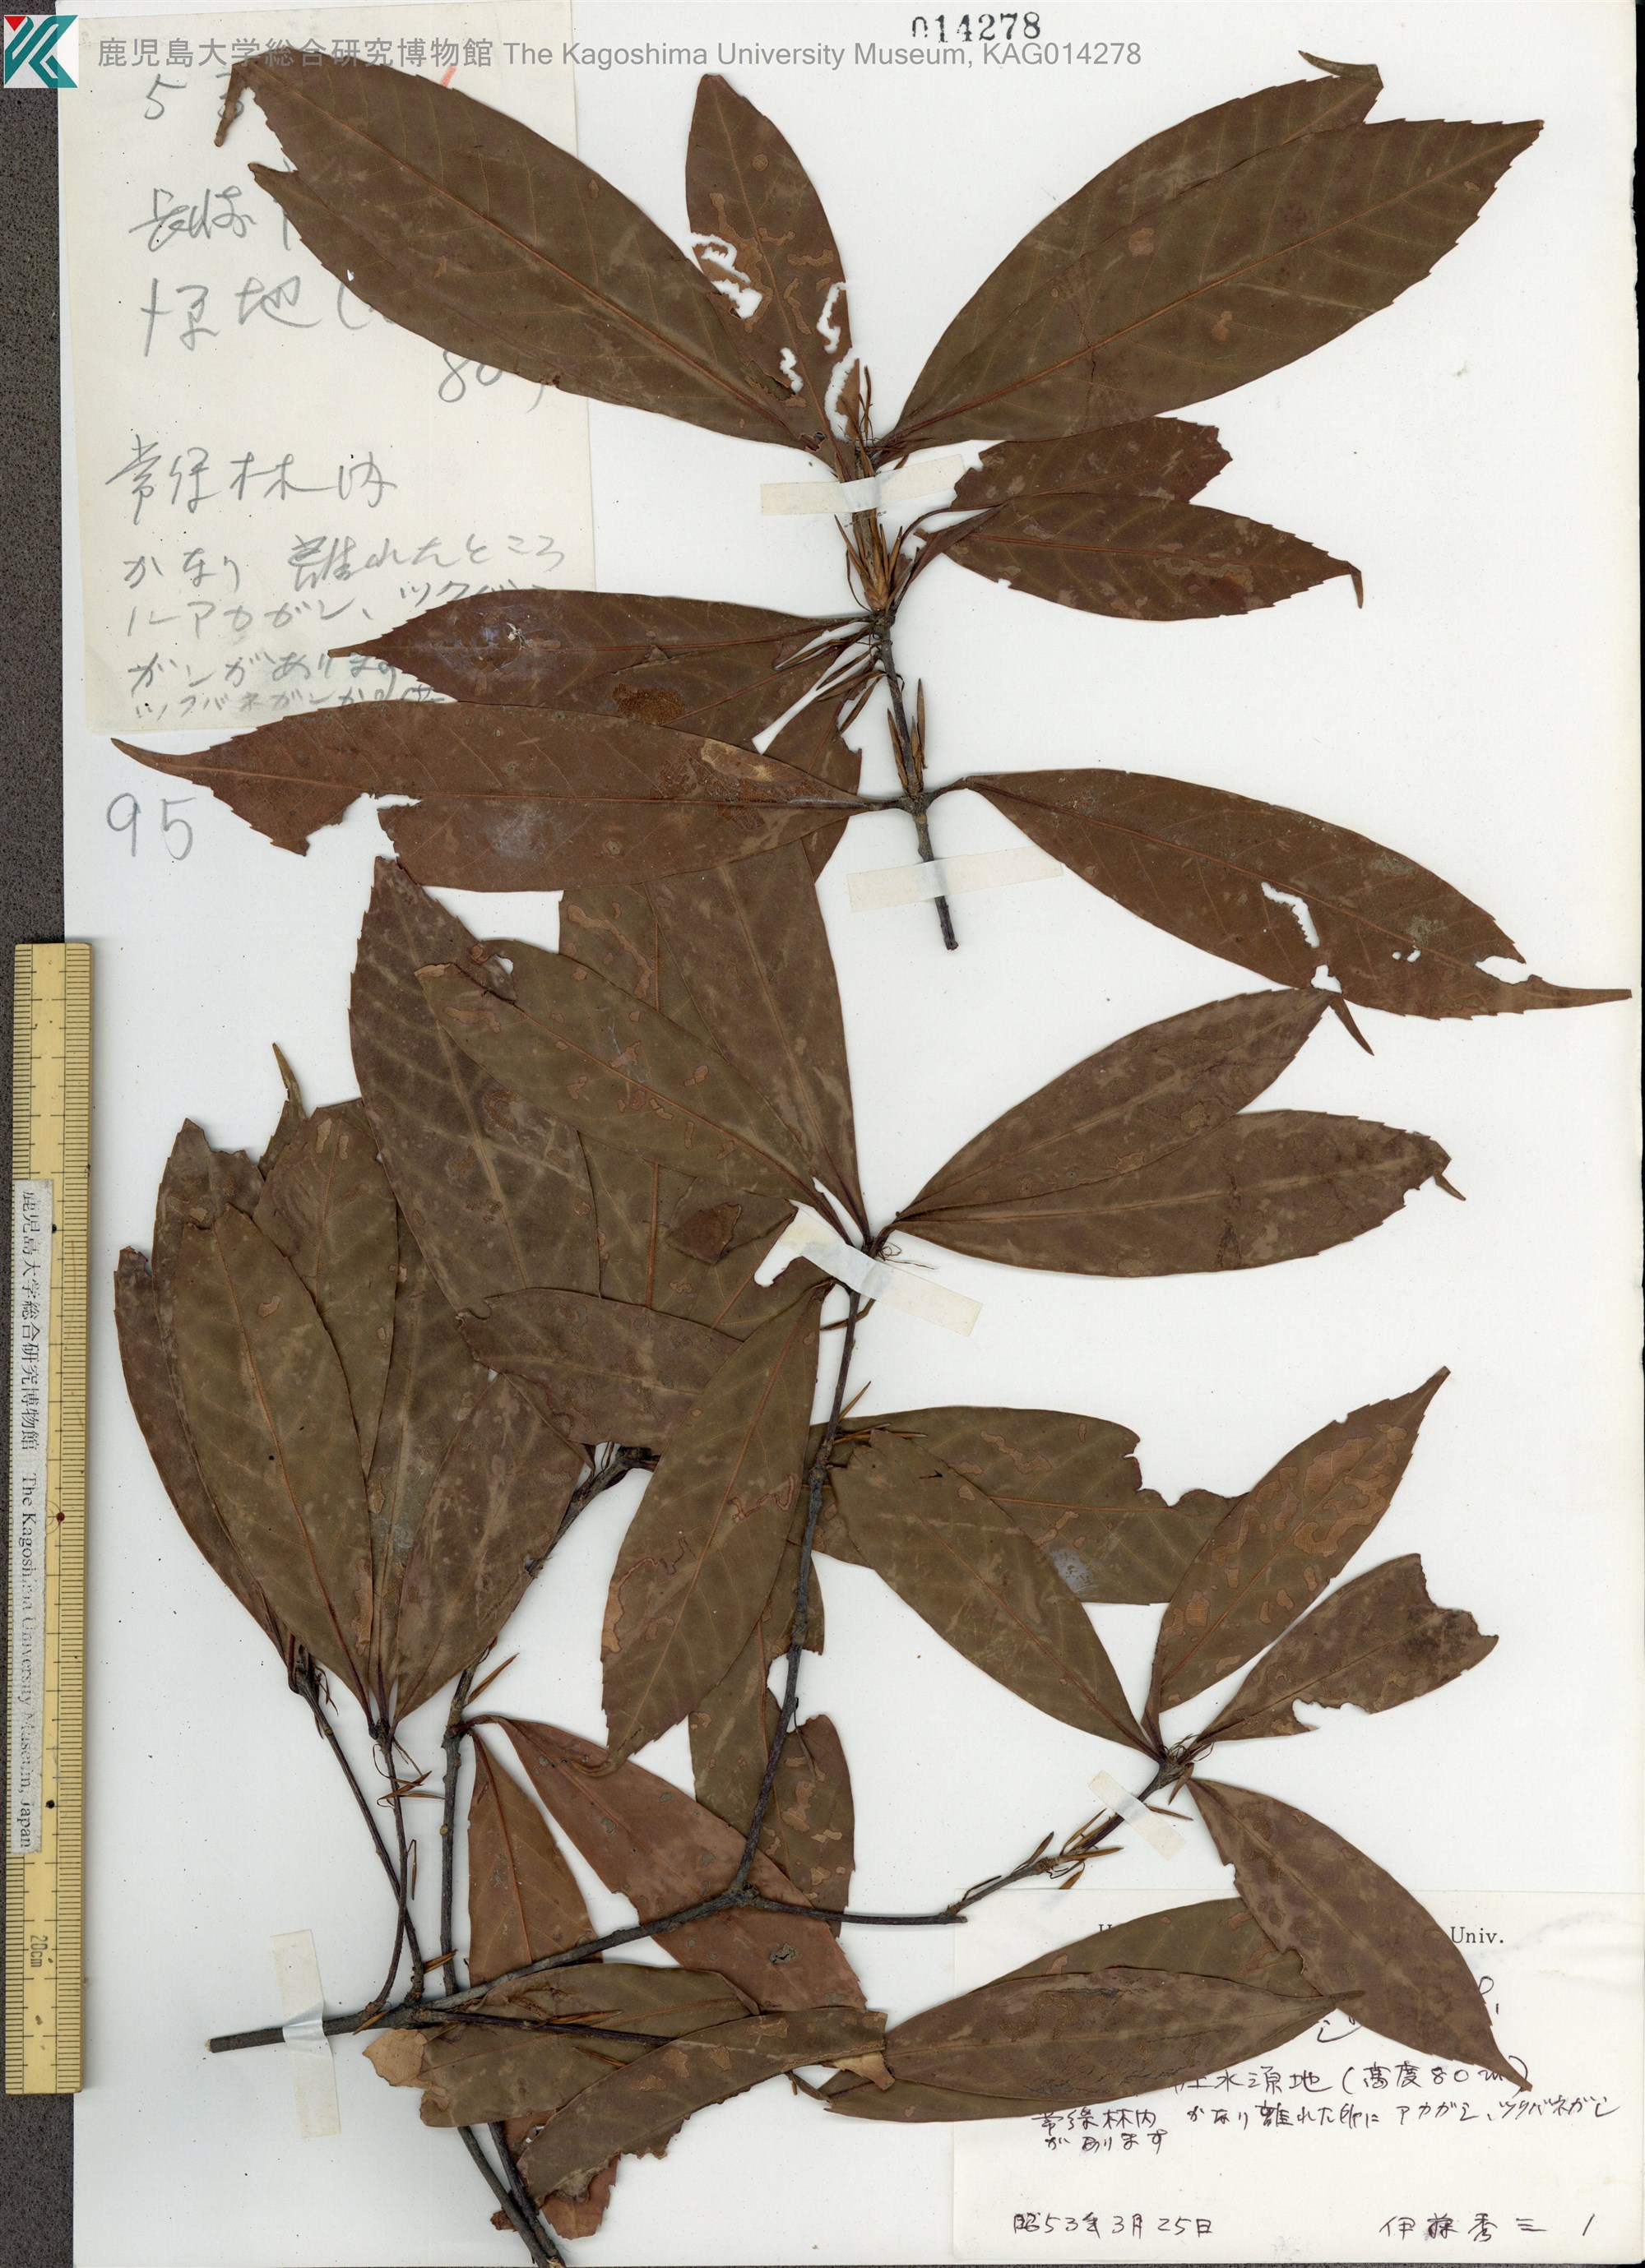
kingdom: Plantae
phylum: Tracheophyta
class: Magnoliopsida
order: Fagales
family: Fagaceae
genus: Quercus
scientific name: Quercus sessilifolia
